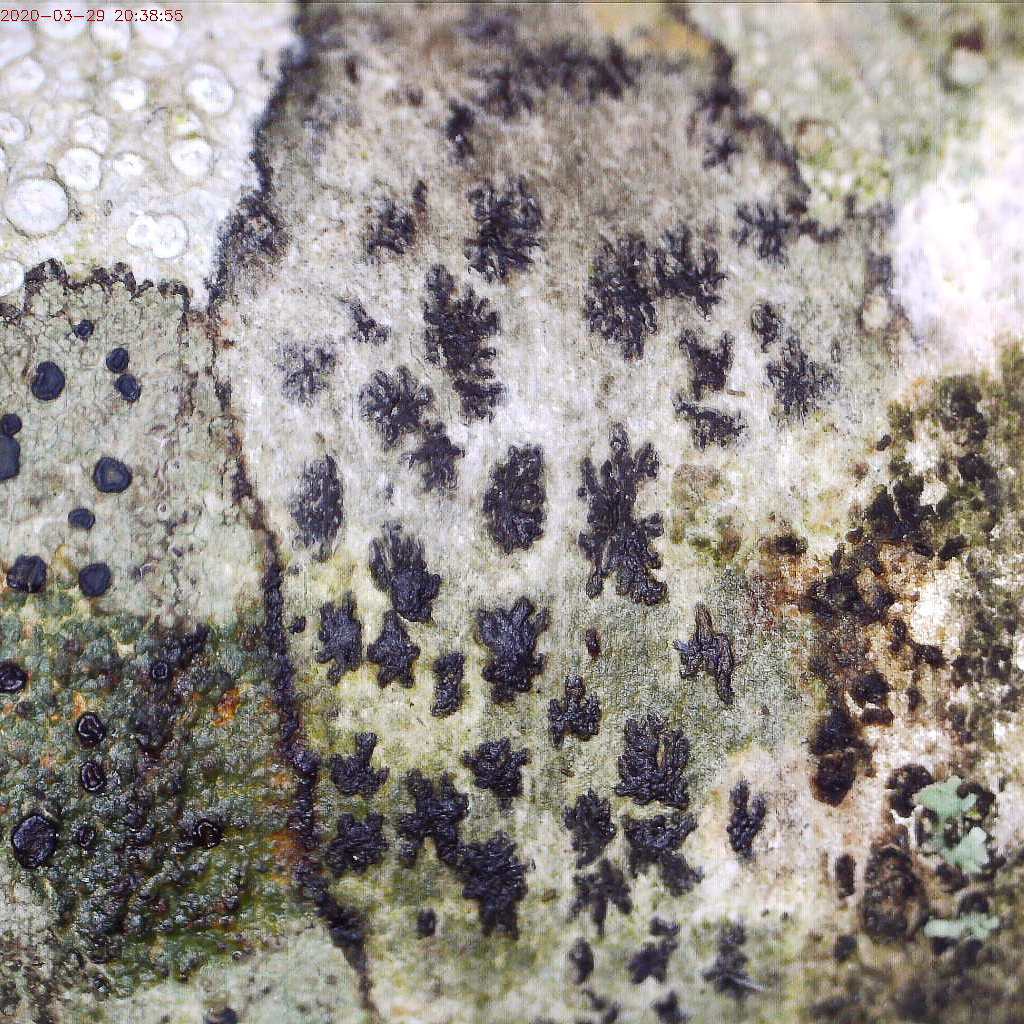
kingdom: Fungi
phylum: Ascomycota
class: Arthoniomycetes
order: Arthoniales
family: Arthoniaceae
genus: Arthonia
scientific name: Arthonia radiata
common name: stjerne-pletlav
